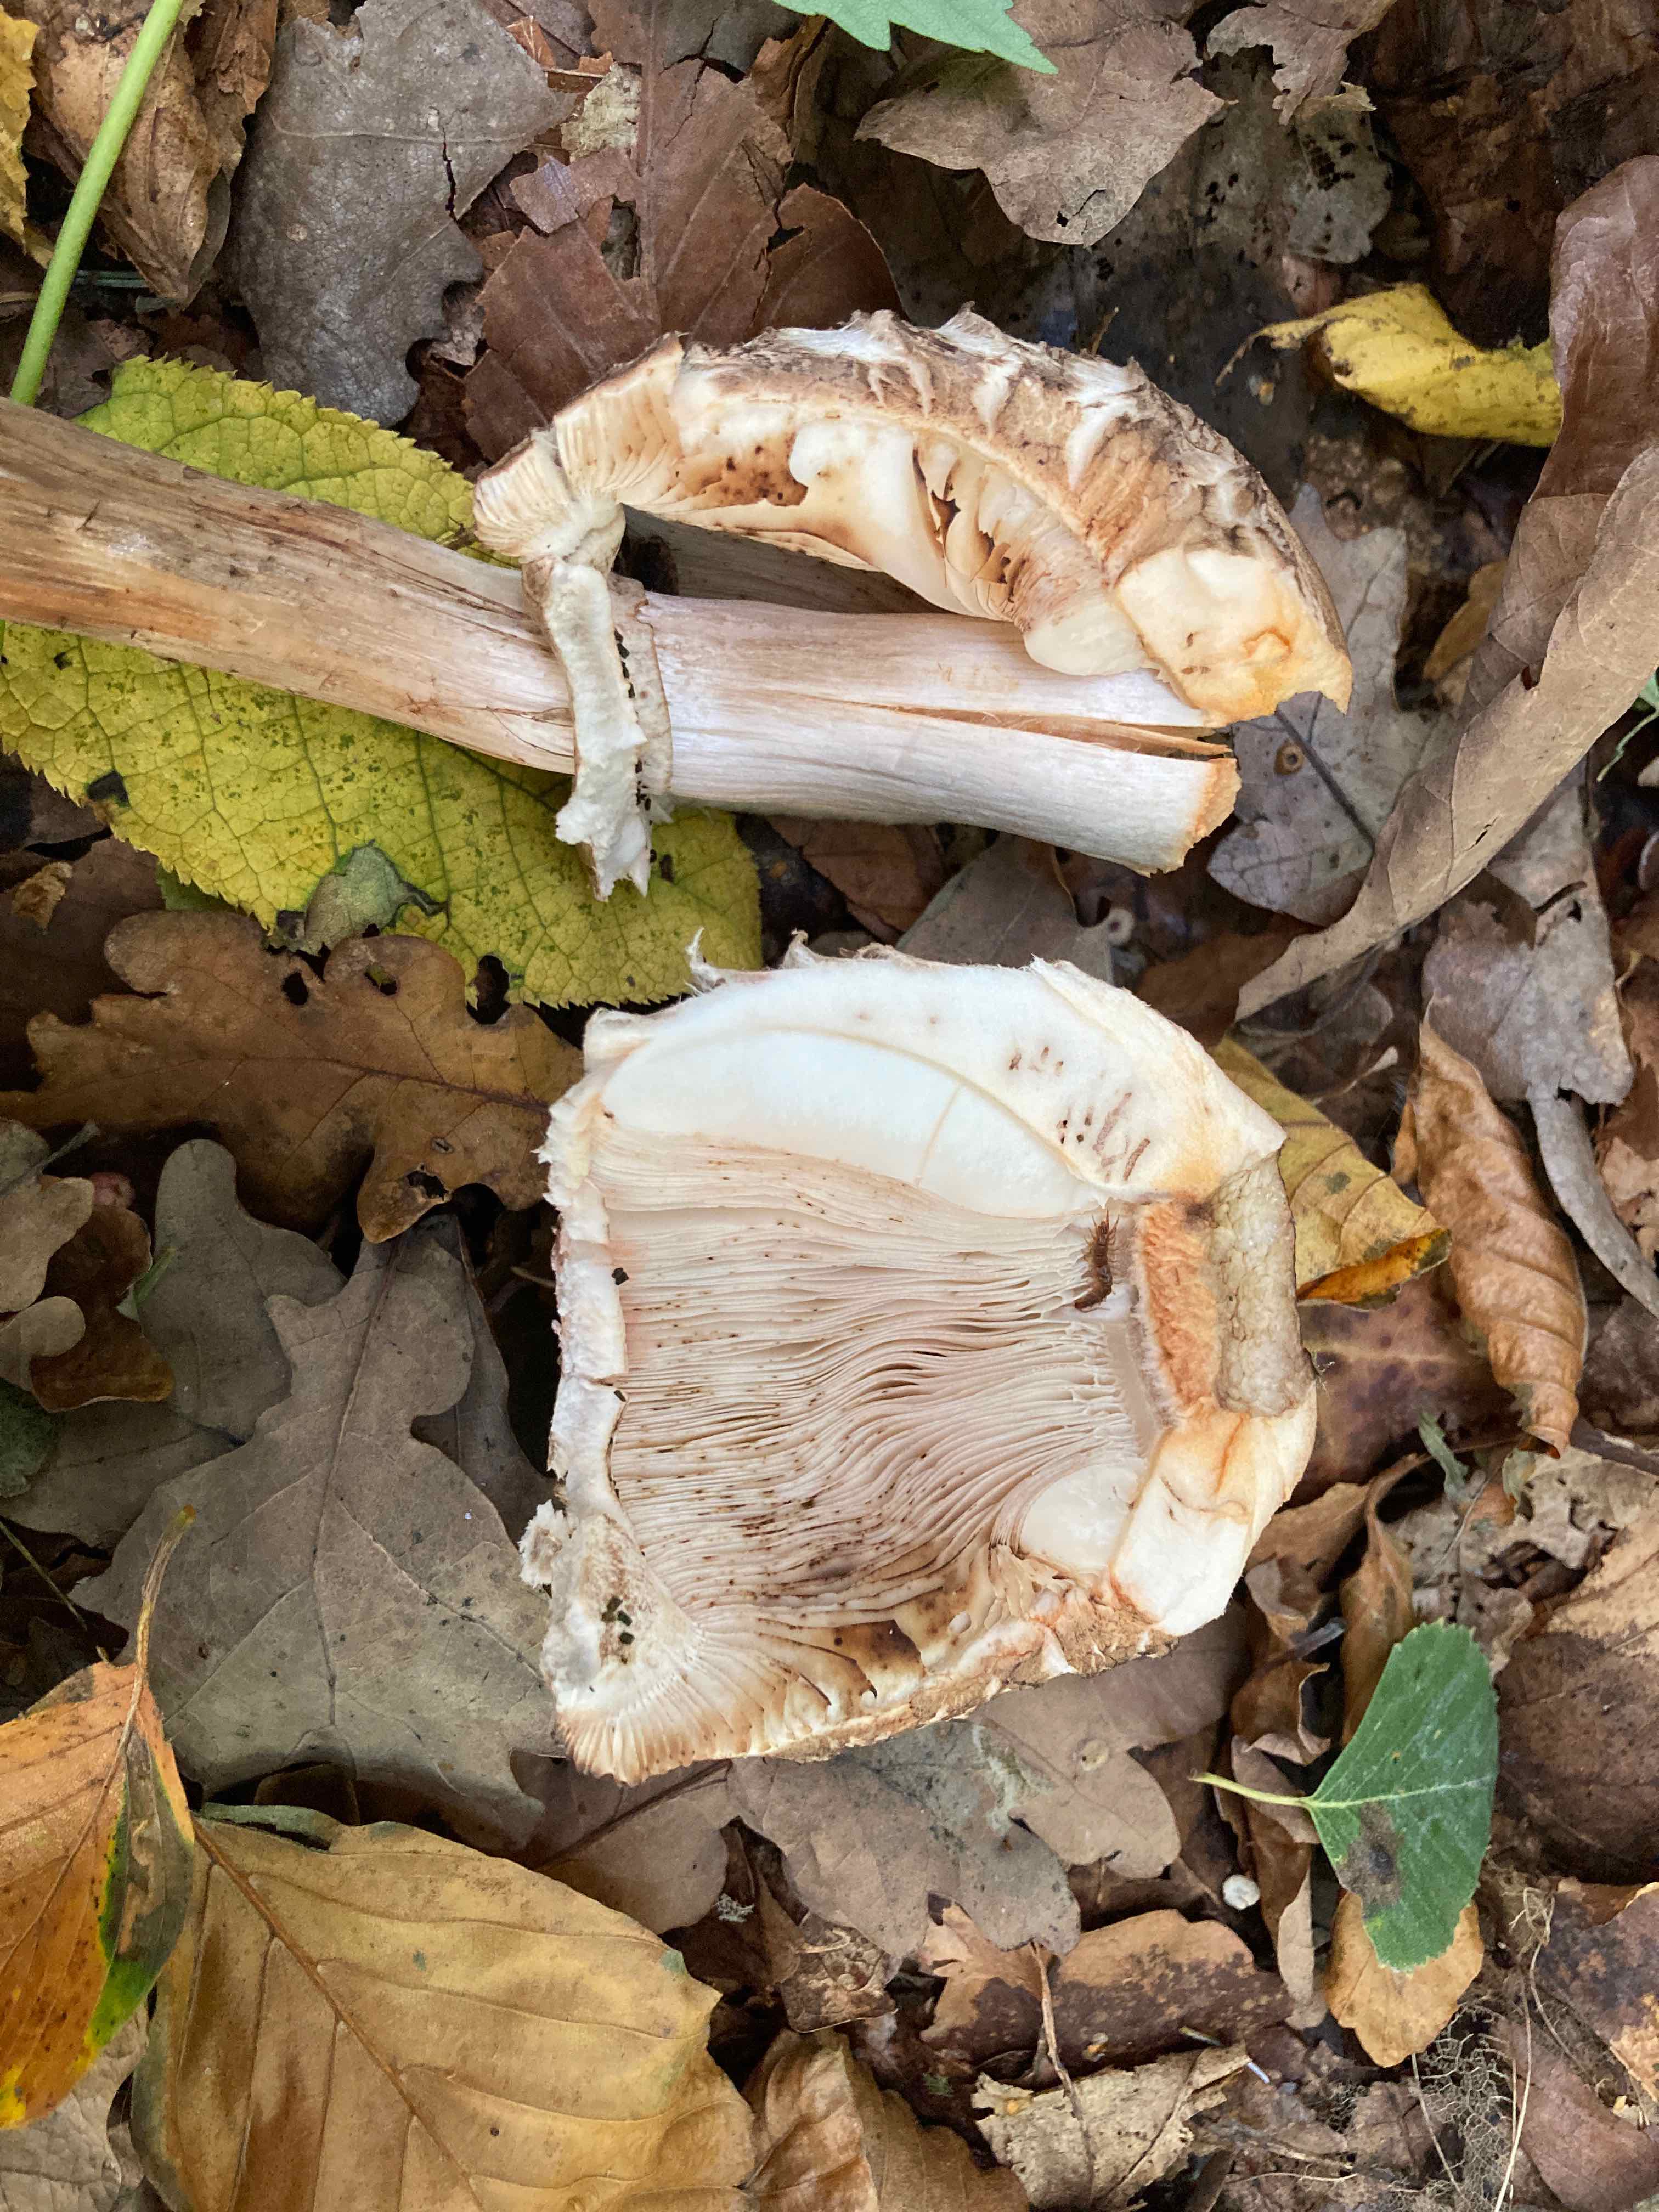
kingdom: Fungi
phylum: Basidiomycota
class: Agaricomycetes
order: Agaricales
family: Agaricaceae
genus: Chlorophyllum
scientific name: Chlorophyllum olivieri
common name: almindelig rabarberhat
